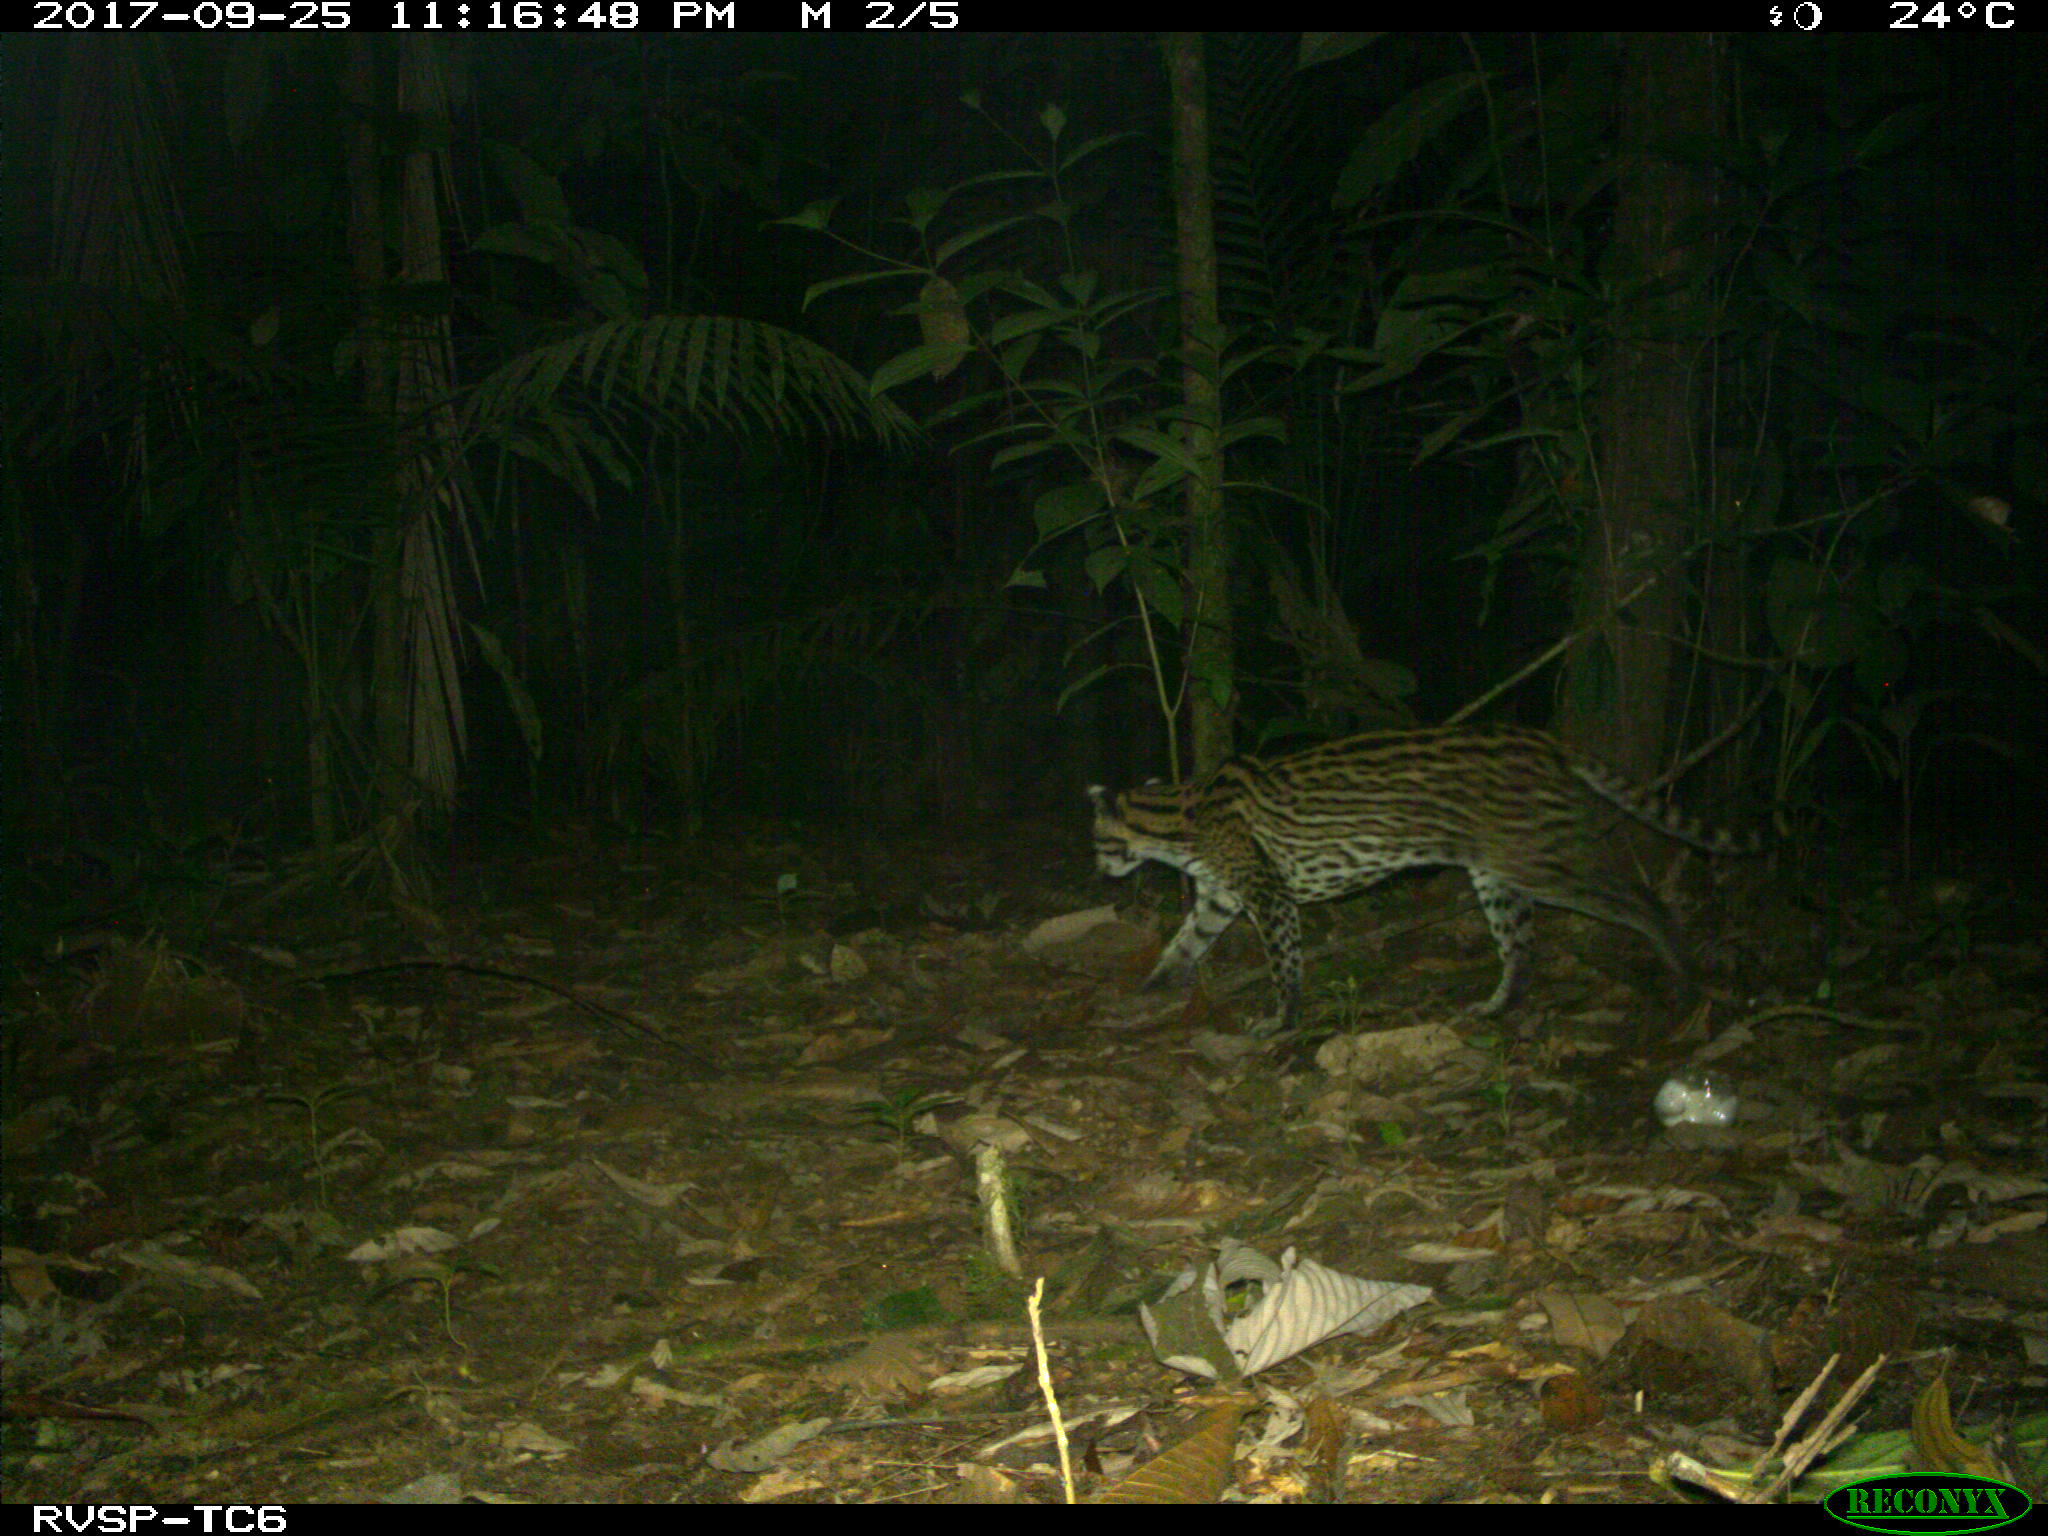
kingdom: Animalia
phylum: Chordata
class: Mammalia
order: Carnivora
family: Felidae
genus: Leopardus
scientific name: Leopardus wiedii
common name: Margay
